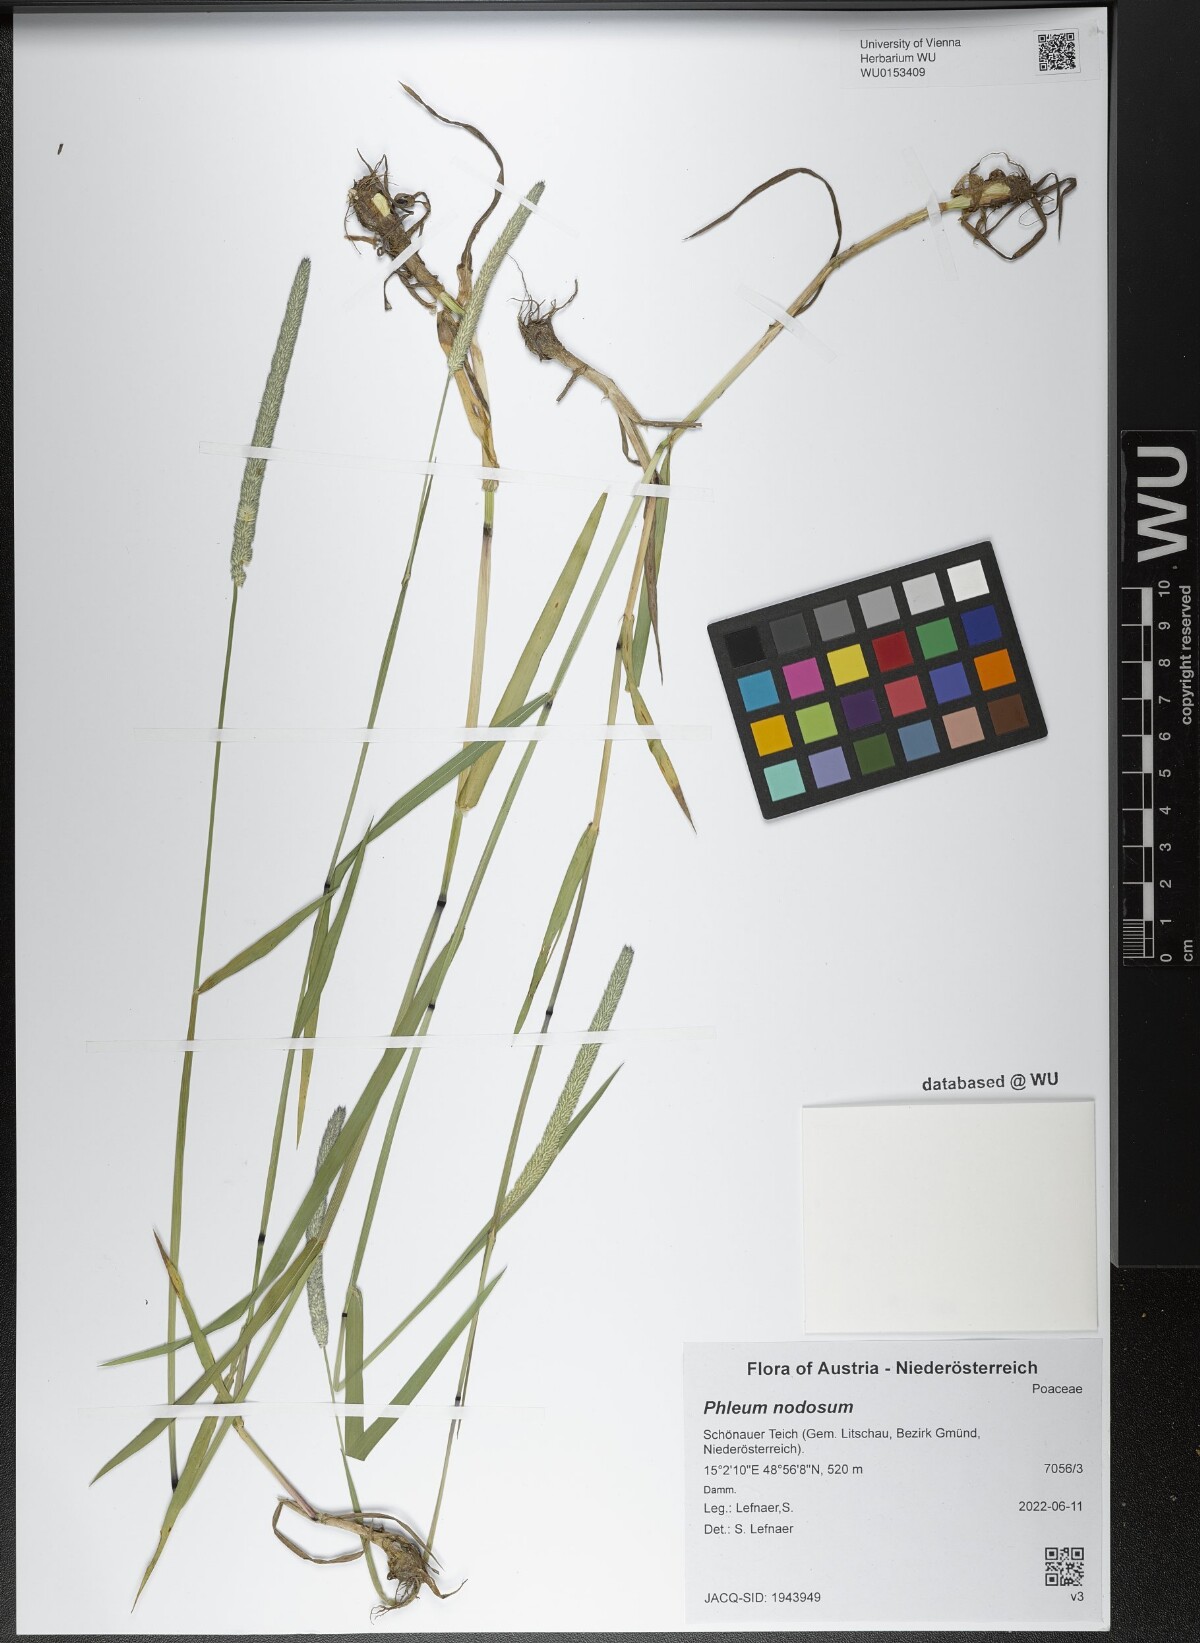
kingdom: Plantae
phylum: Tracheophyta
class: Liliopsida
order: Poales
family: Poaceae
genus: Phleum
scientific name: Phleum pratense
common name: Timothy grass
